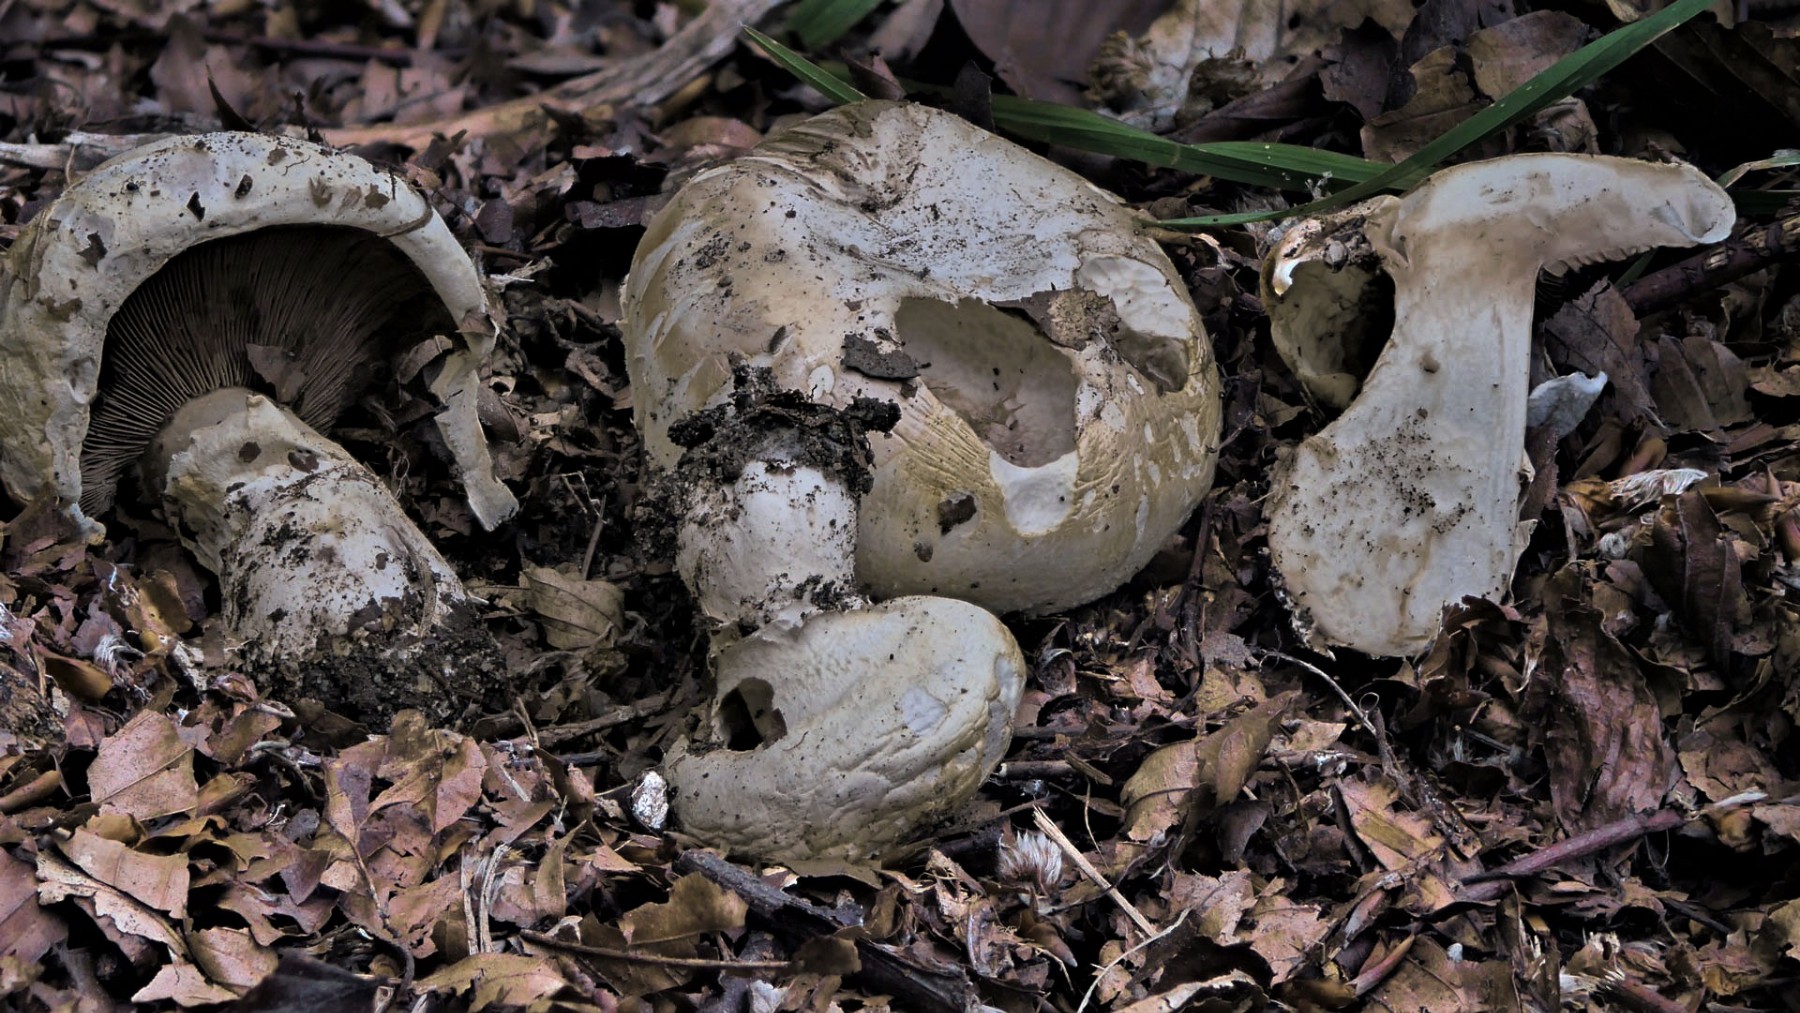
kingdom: Fungi
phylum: Basidiomycota
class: Agaricomycetes
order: Agaricales
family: Agaricaceae
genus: Agaricus
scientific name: Agaricus bitorquis
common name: vej-champignon
